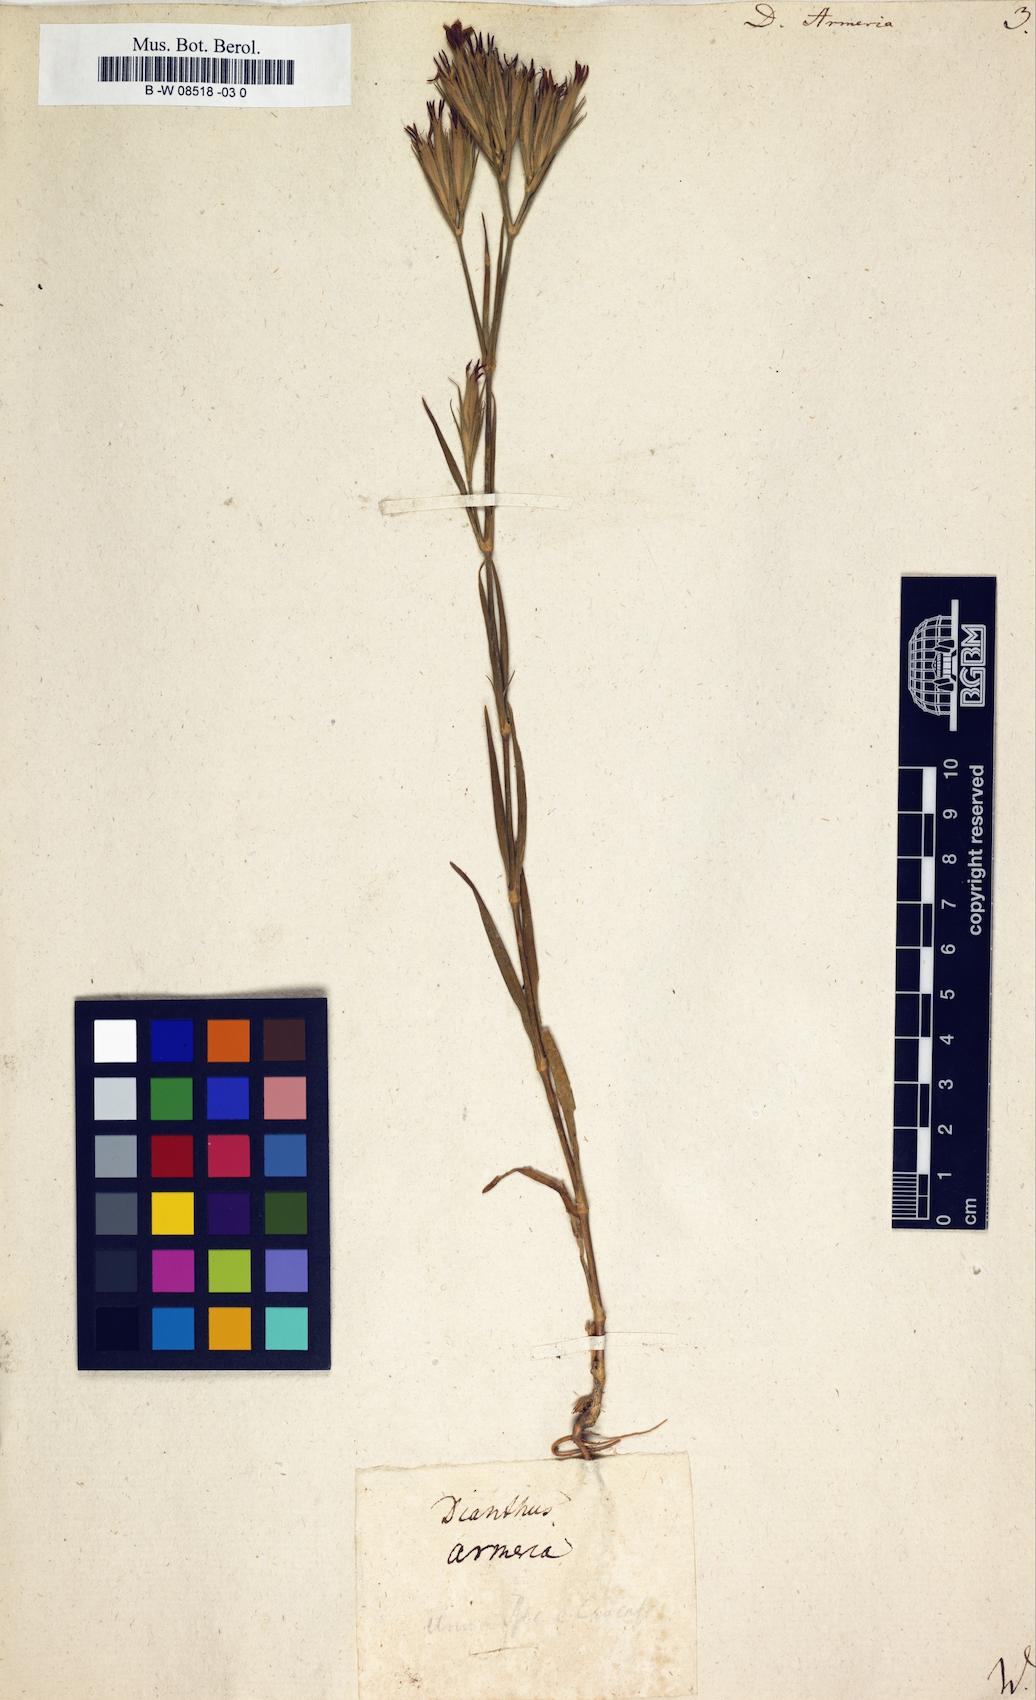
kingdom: Plantae
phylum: Tracheophyta
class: Magnoliopsida
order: Caryophyllales
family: Caryophyllaceae
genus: Dianthus
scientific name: Dianthus armeria
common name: Deptford pink
